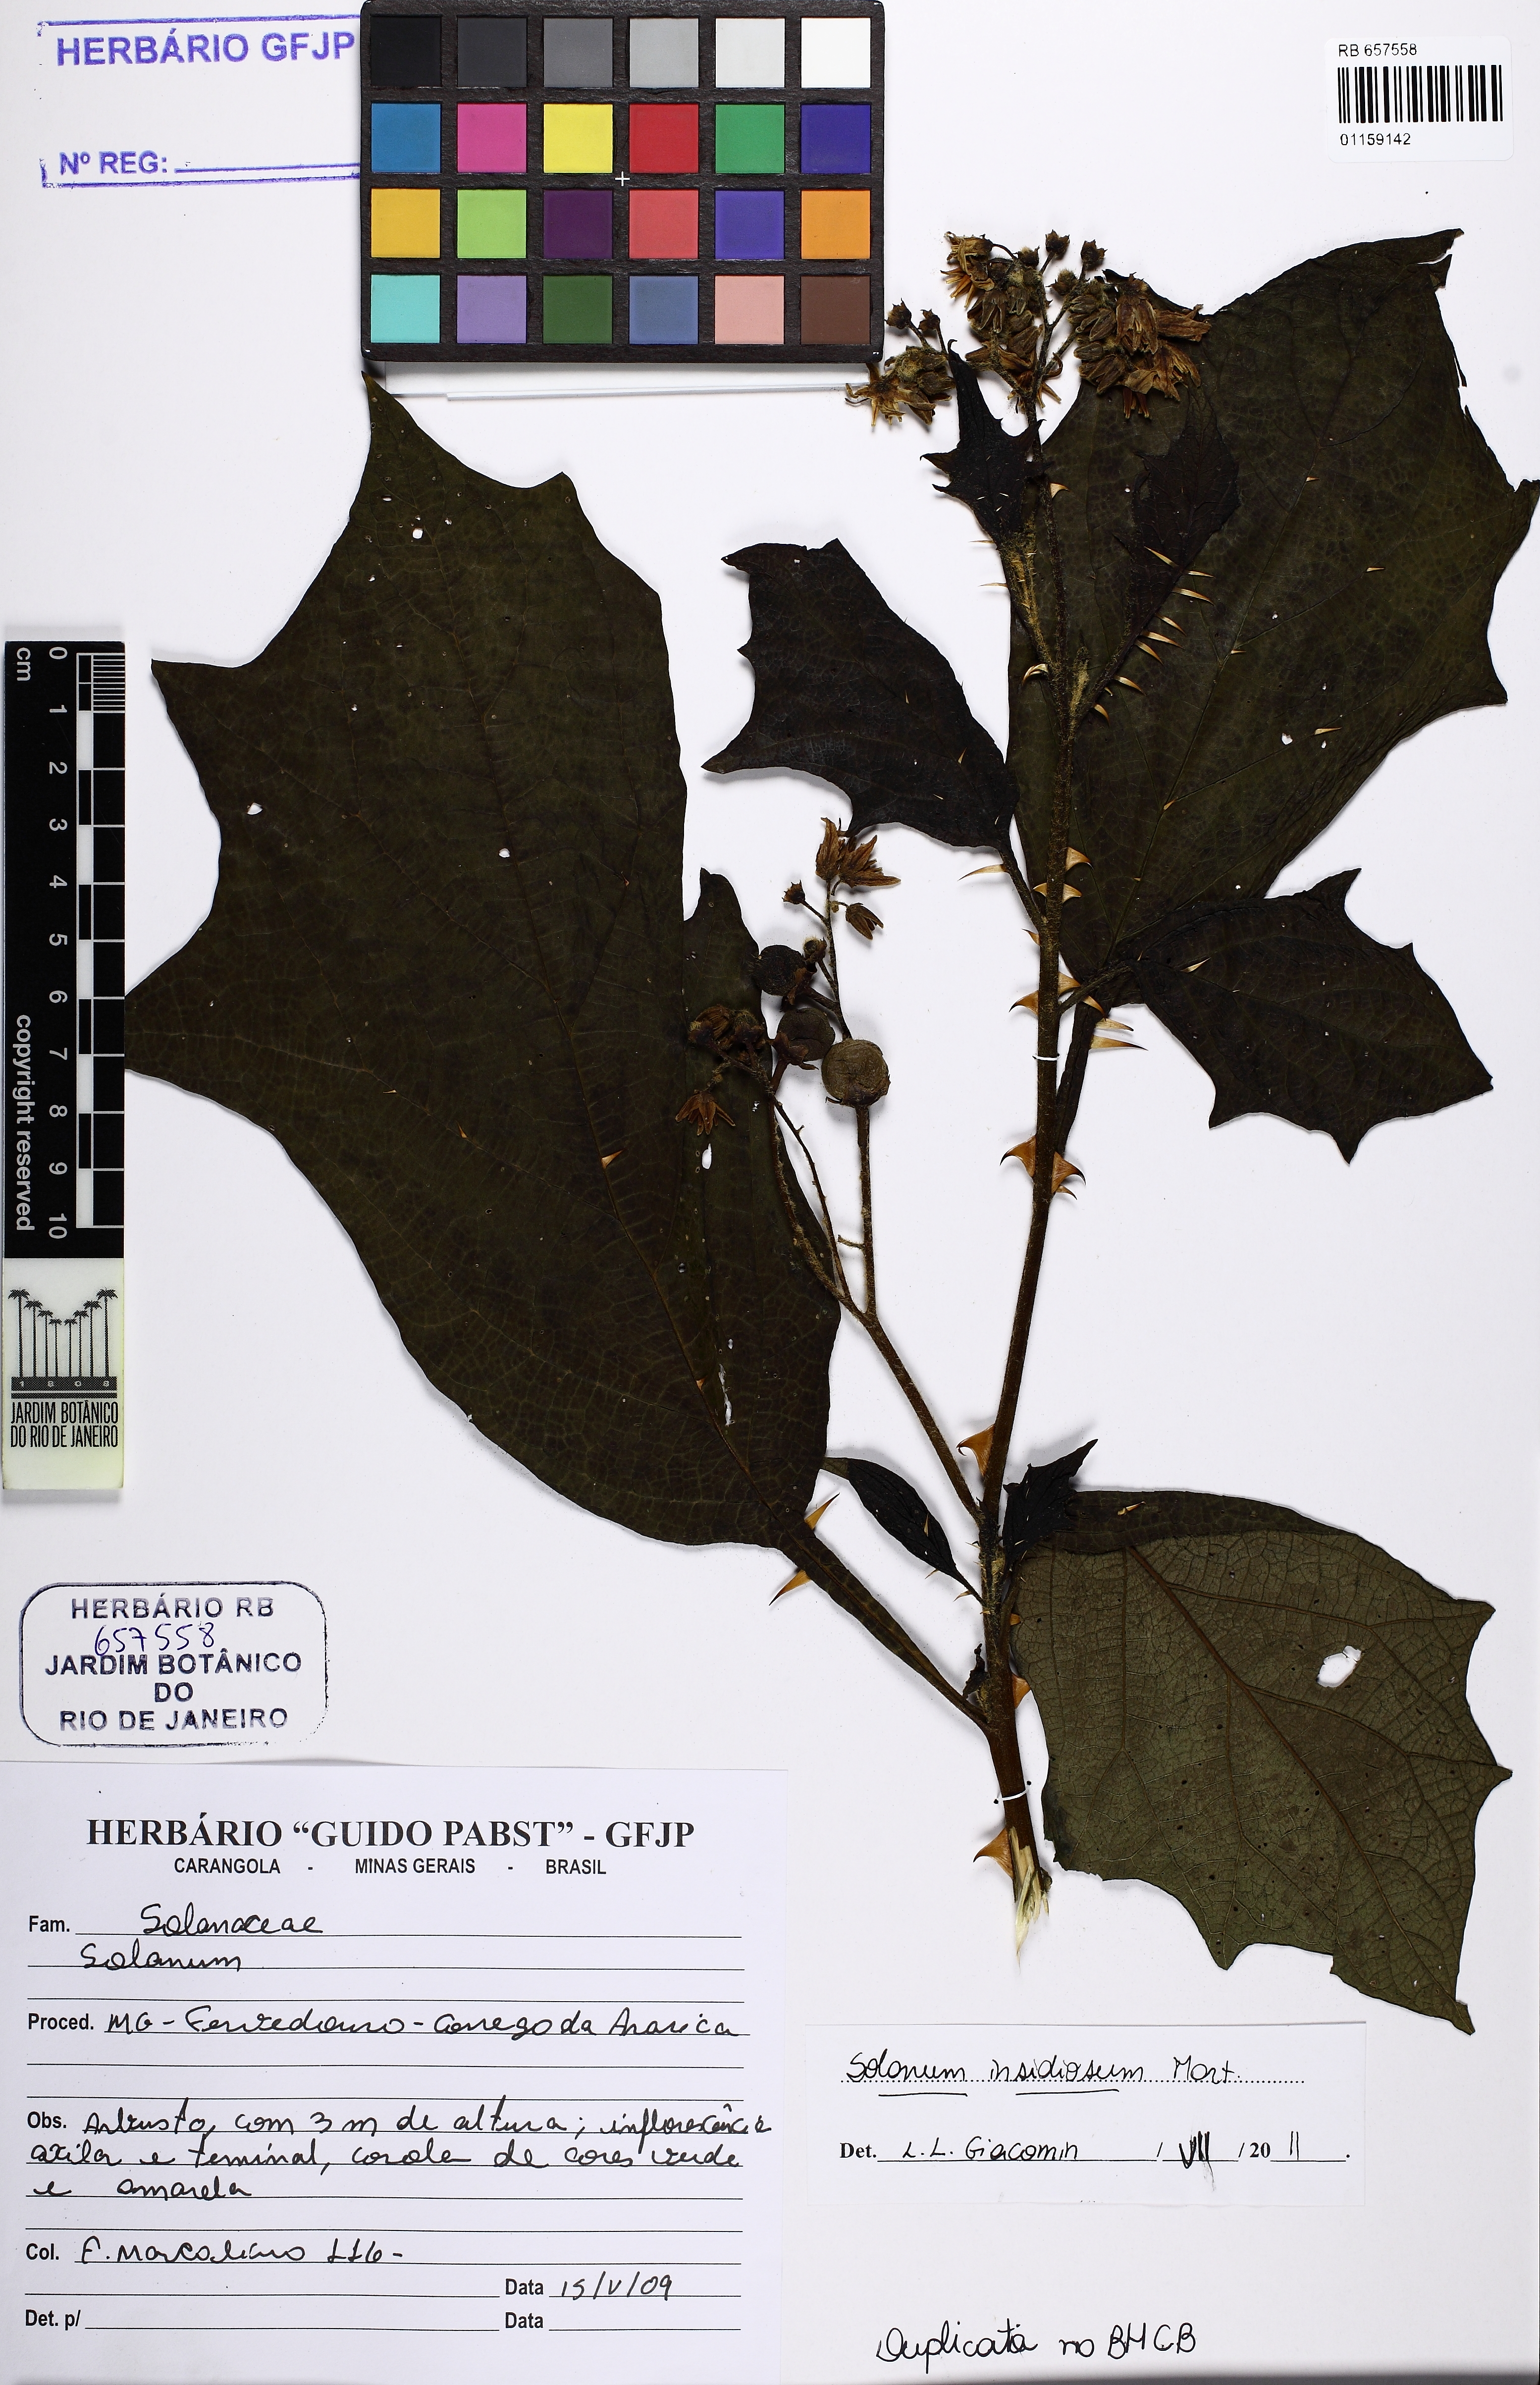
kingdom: Plantae
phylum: Tracheophyta
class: Magnoliopsida
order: Solanales
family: Solanaceae
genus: Solanum
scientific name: Solanum insidiosum
